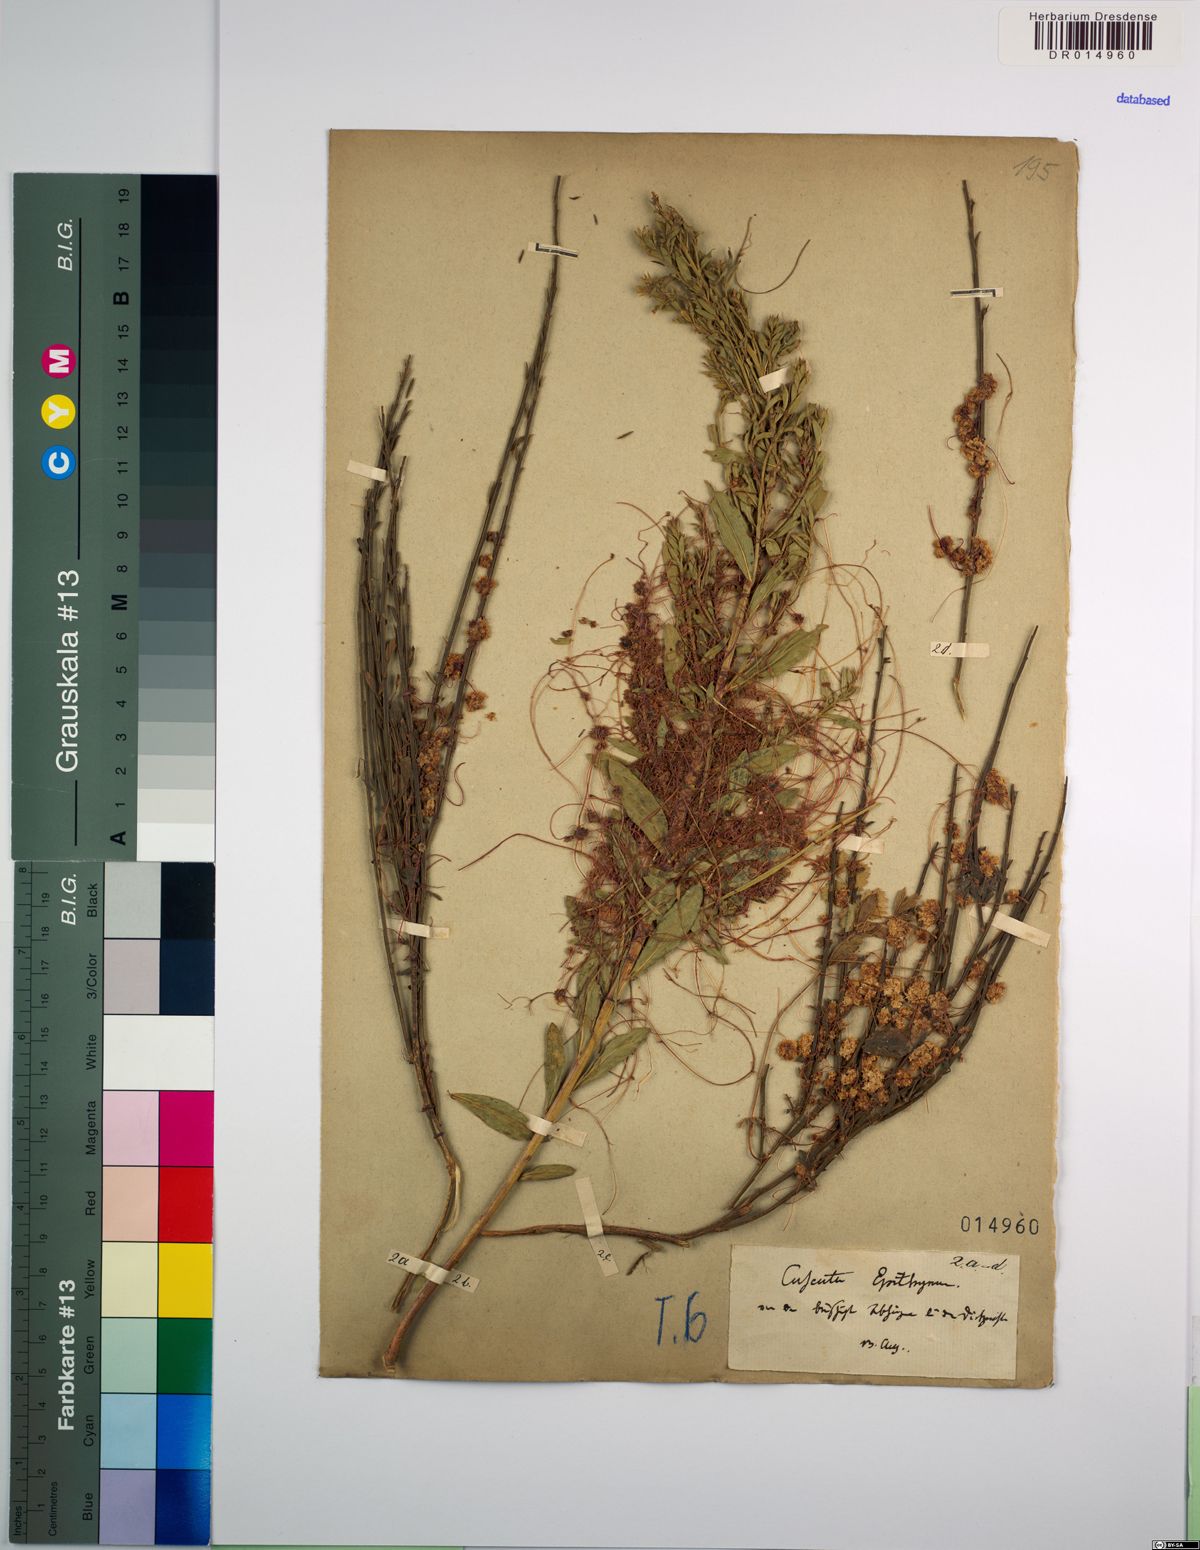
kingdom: Plantae
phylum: Tracheophyta
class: Magnoliopsida
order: Solanales
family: Convolvulaceae
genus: Cuscuta
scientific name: Cuscuta epithymum
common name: Clover dodder
